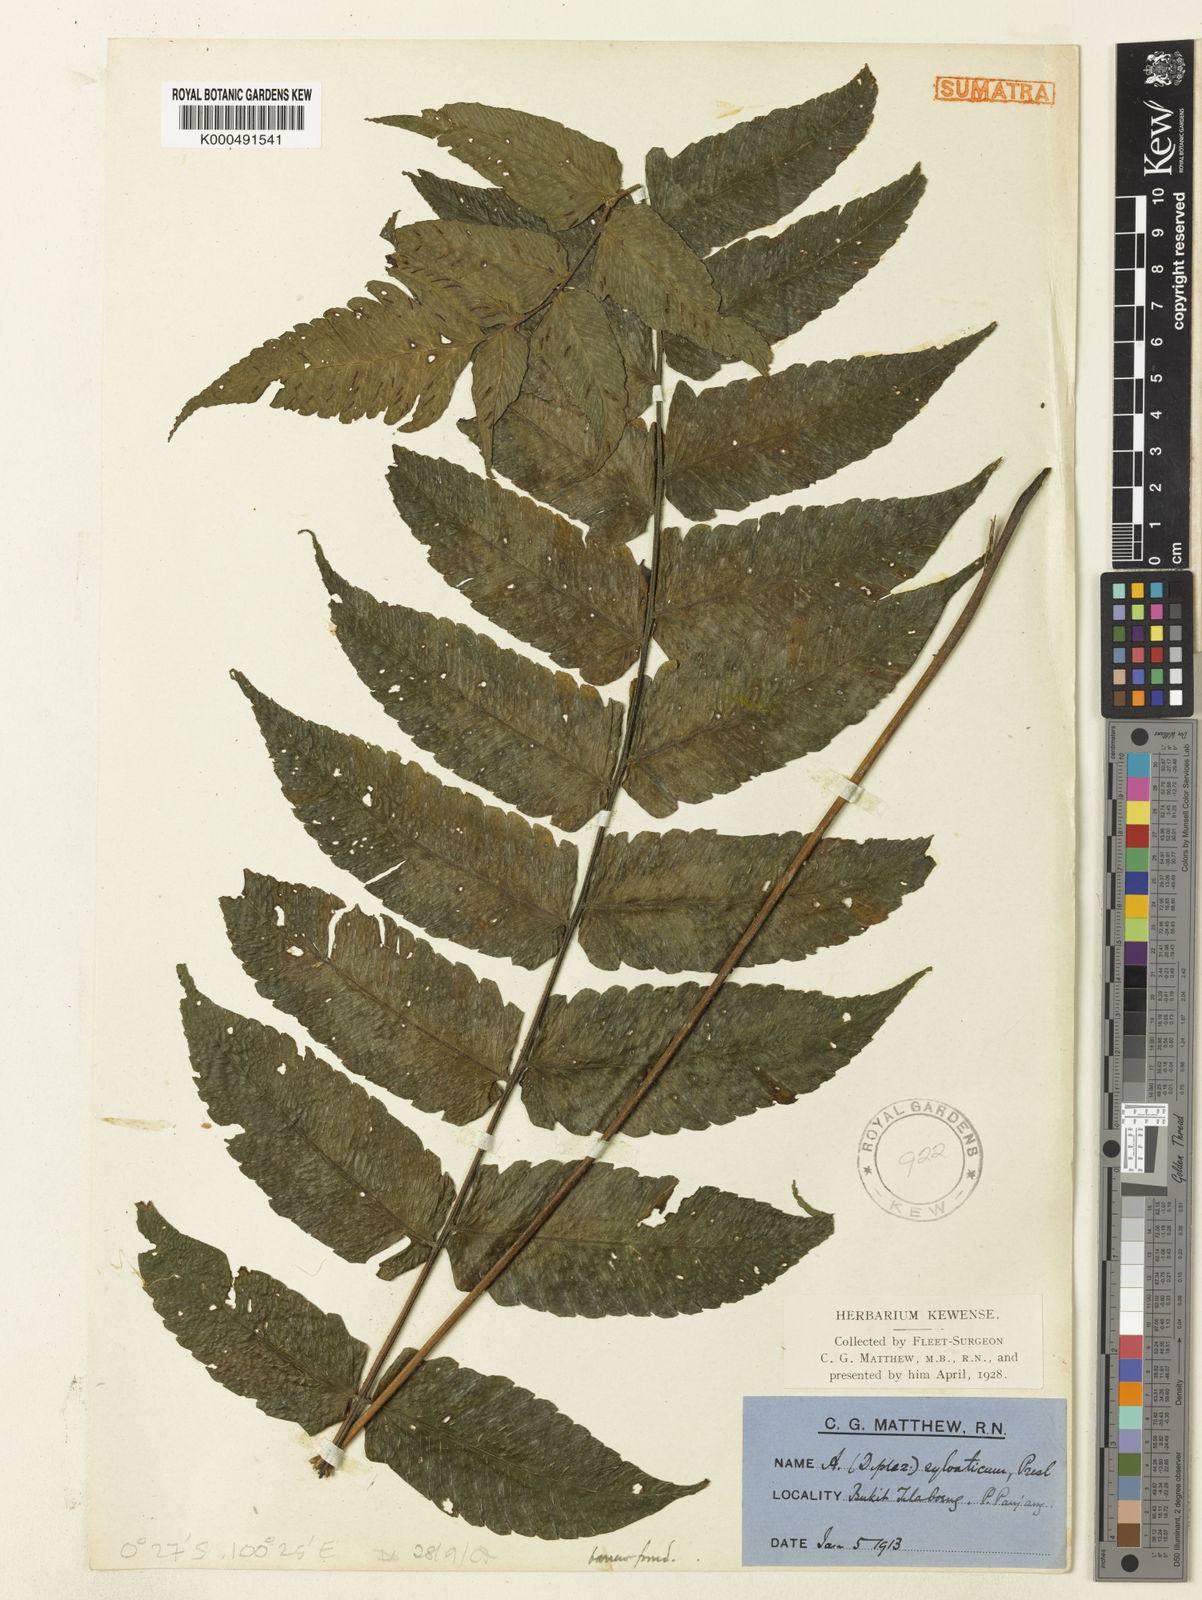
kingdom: Plantae
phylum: Tracheophyta
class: Polypodiopsida
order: Polypodiales
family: Athyriaceae
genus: Diplazium
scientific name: Diplazium sylvaticum
